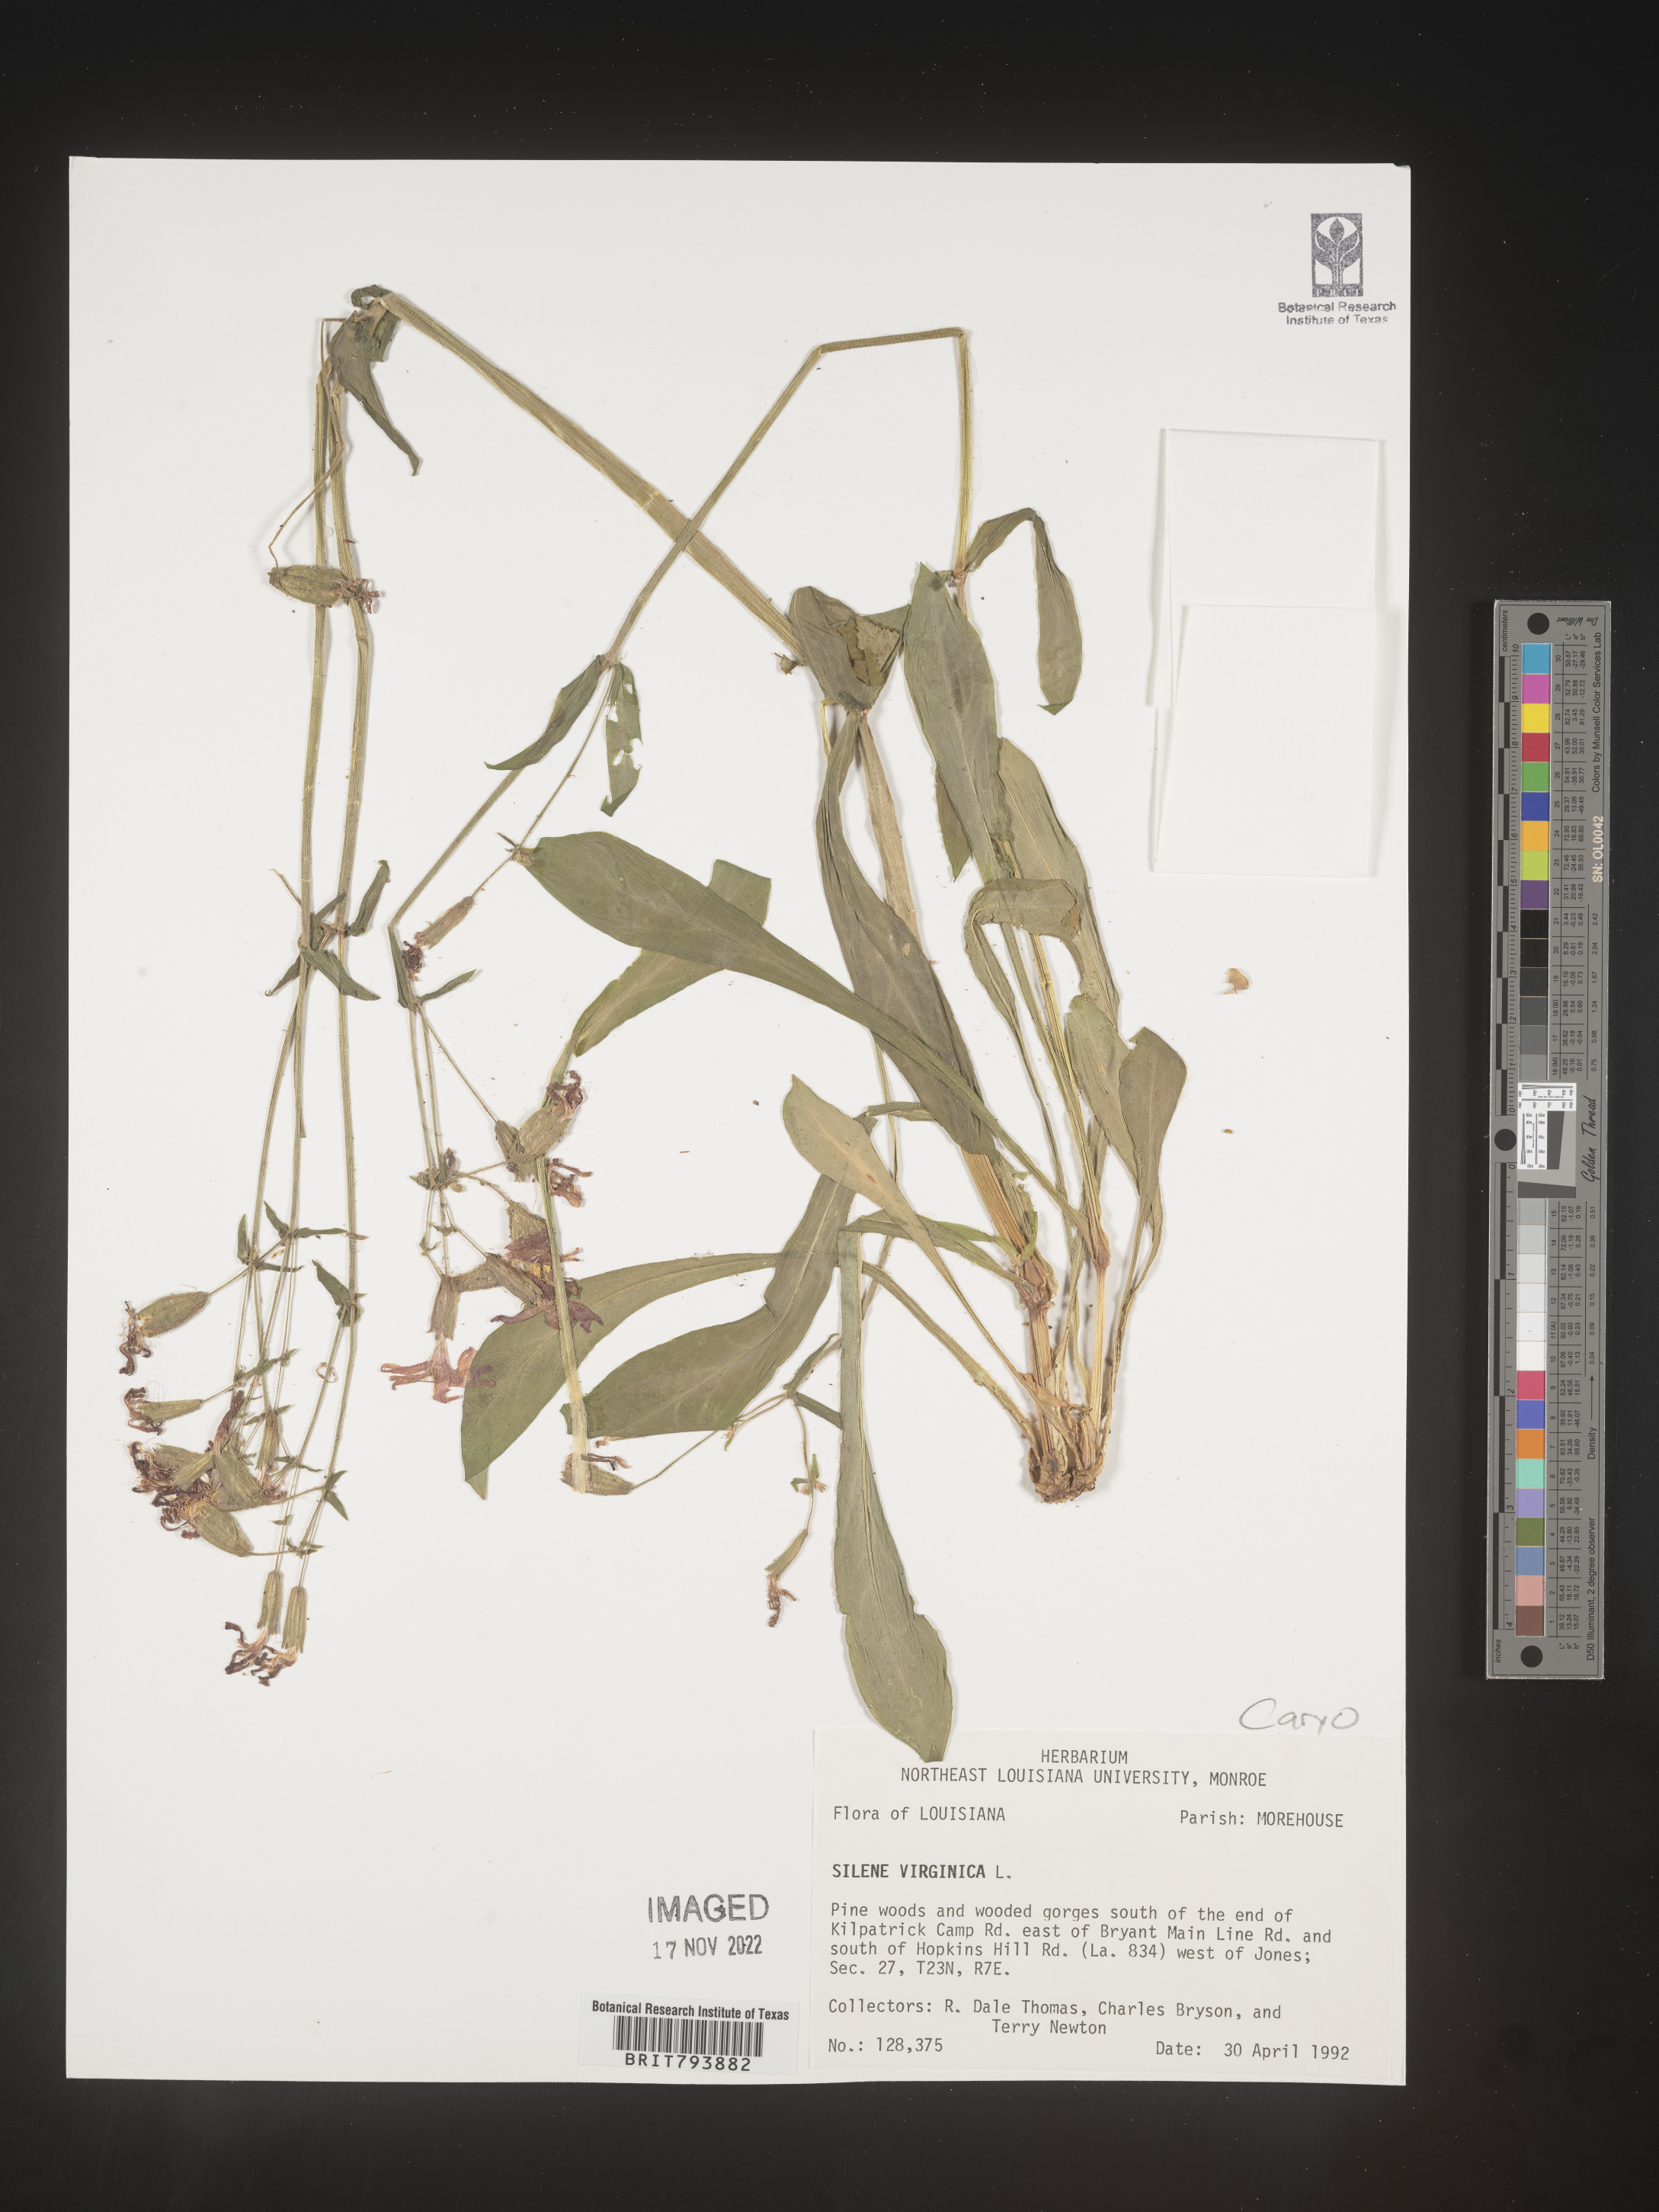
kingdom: Plantae
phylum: Tracheophyta
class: Magnoliopsida
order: Caryophyllales
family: Caryophyllaceae
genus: Silene
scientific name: Silene virginica
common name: Fire-pink
